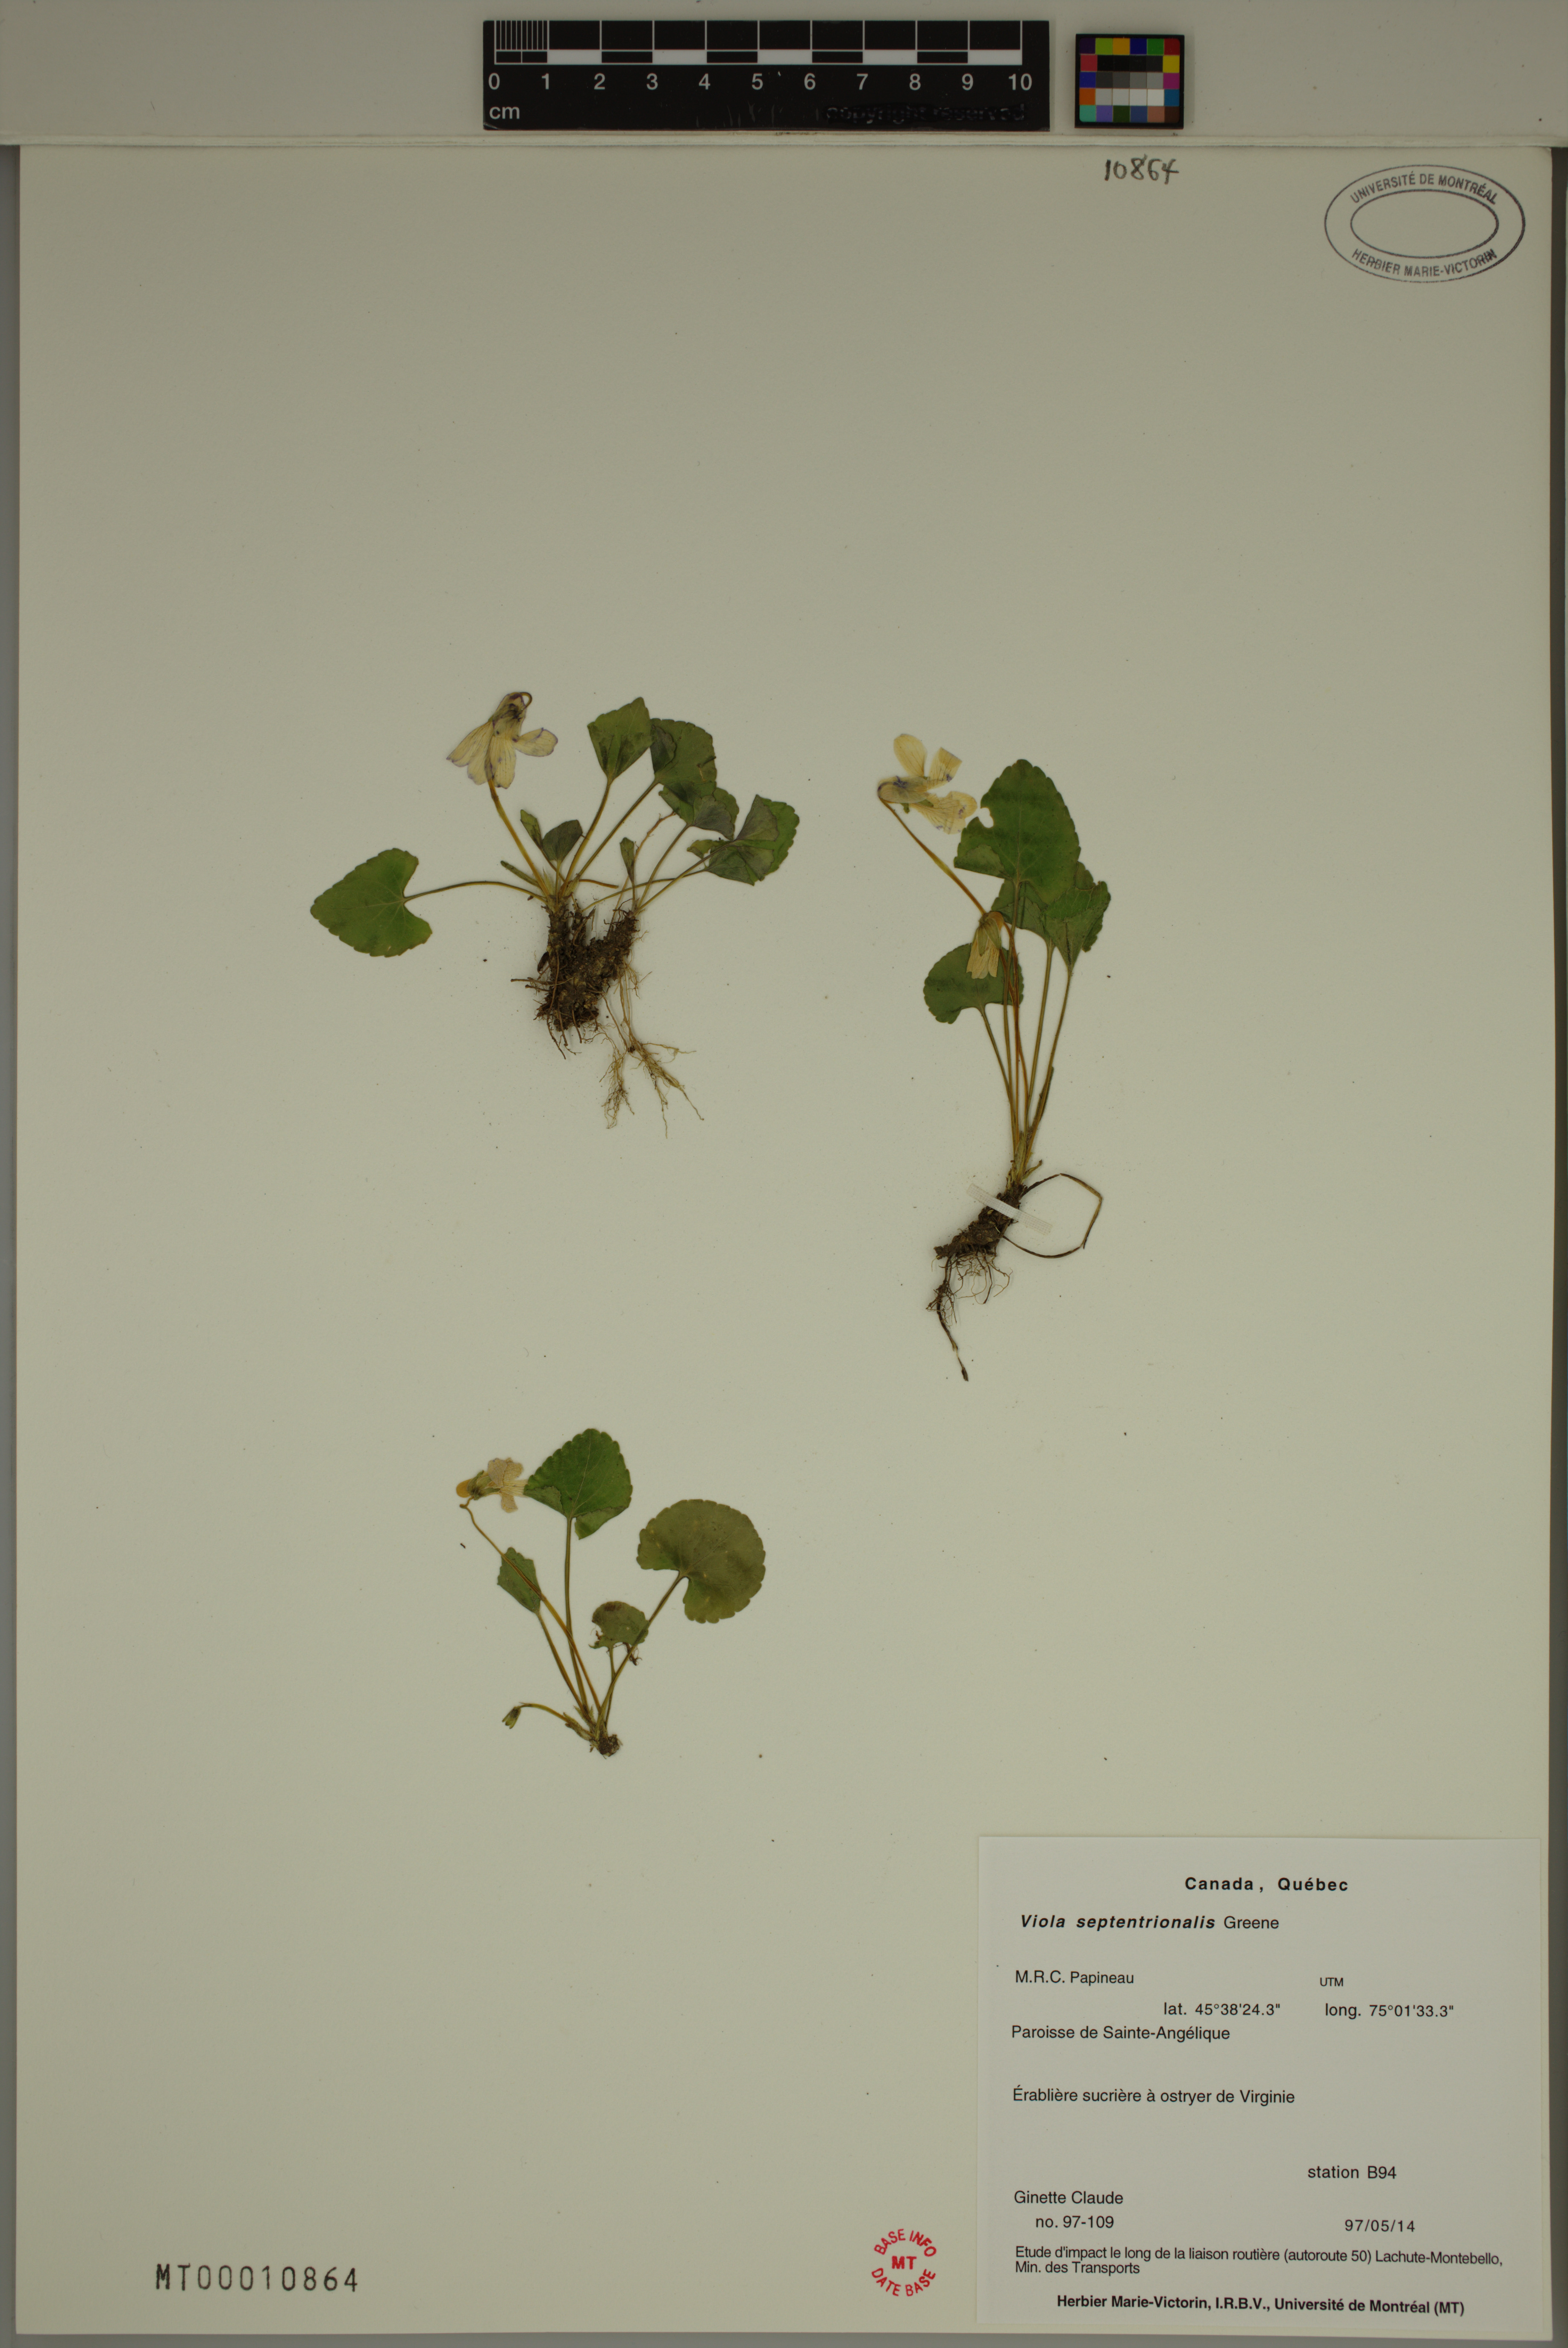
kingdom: Plantae
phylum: Tracheophyta
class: Magnoliopsida
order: Malpighiales
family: Violaceae
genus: Viola
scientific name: Viola sororia
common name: Dooryard violet
